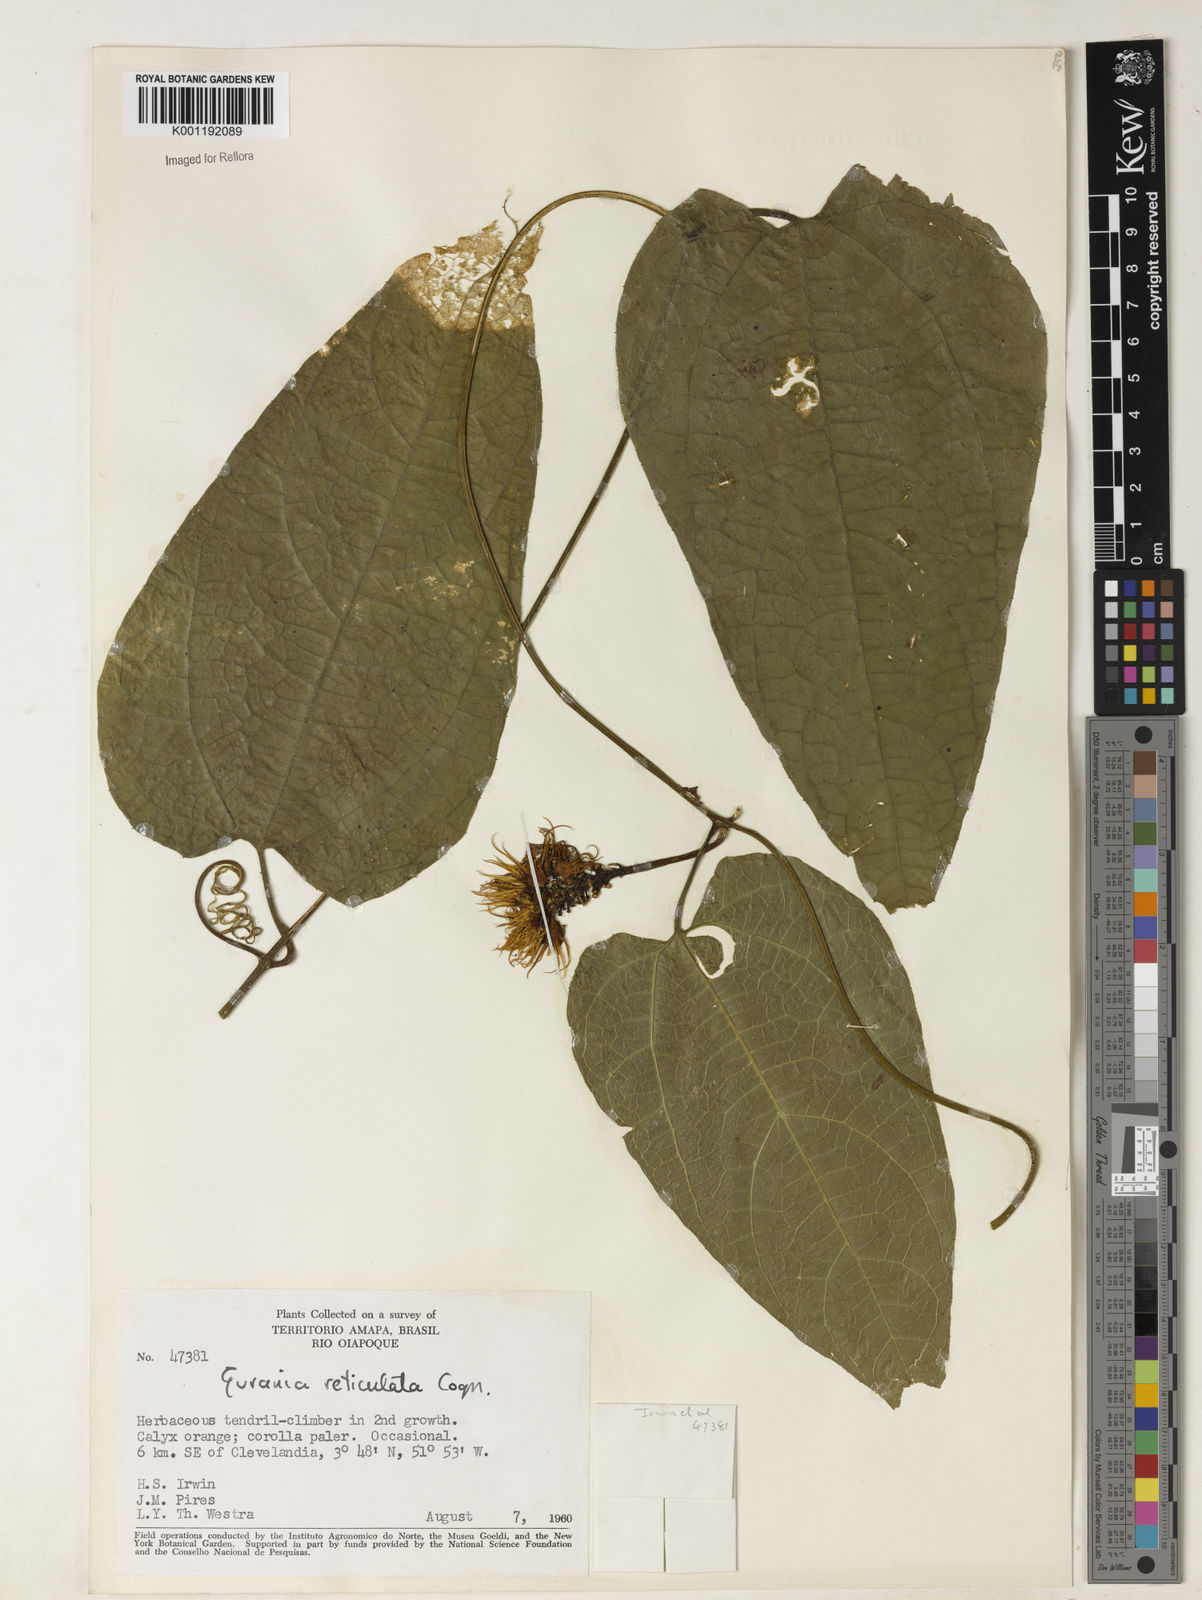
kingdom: Plantae
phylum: Tracheophyta
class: Magnoliopsida
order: Cucurbitales
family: Cucurbitaceae
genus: Gurania
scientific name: Gurania reticulata
